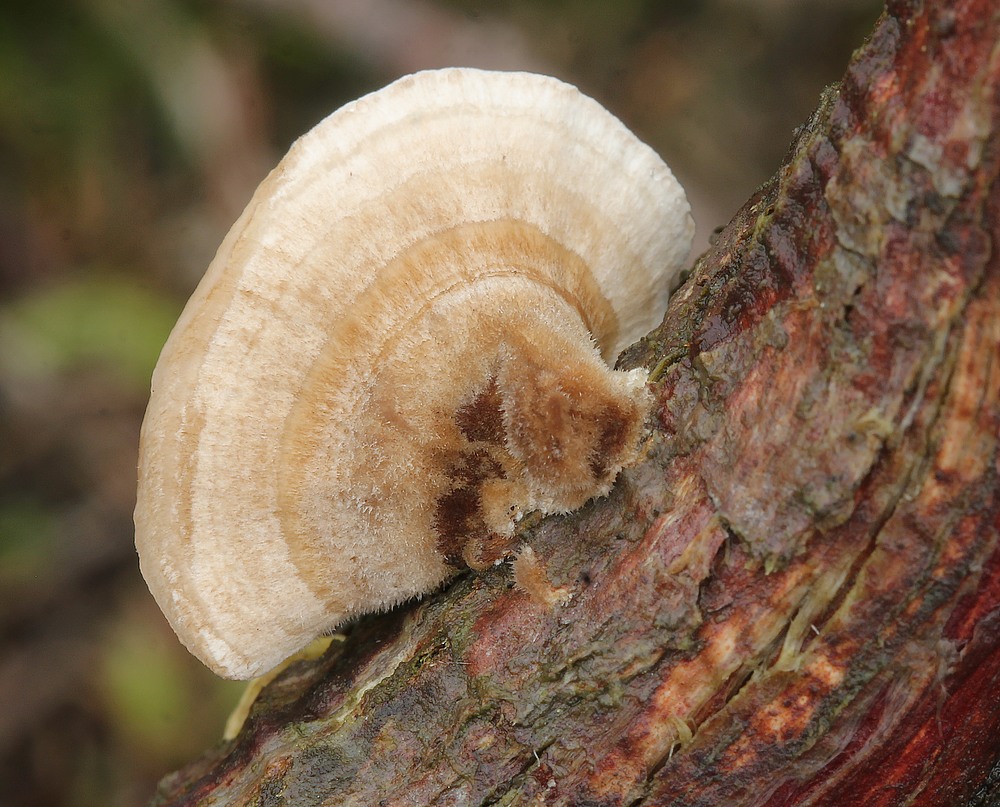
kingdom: Fungi
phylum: Basidiomycota
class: Agaricomycetes
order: Polyporales
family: Polyporaceae
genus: Trametes
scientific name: Trametes
